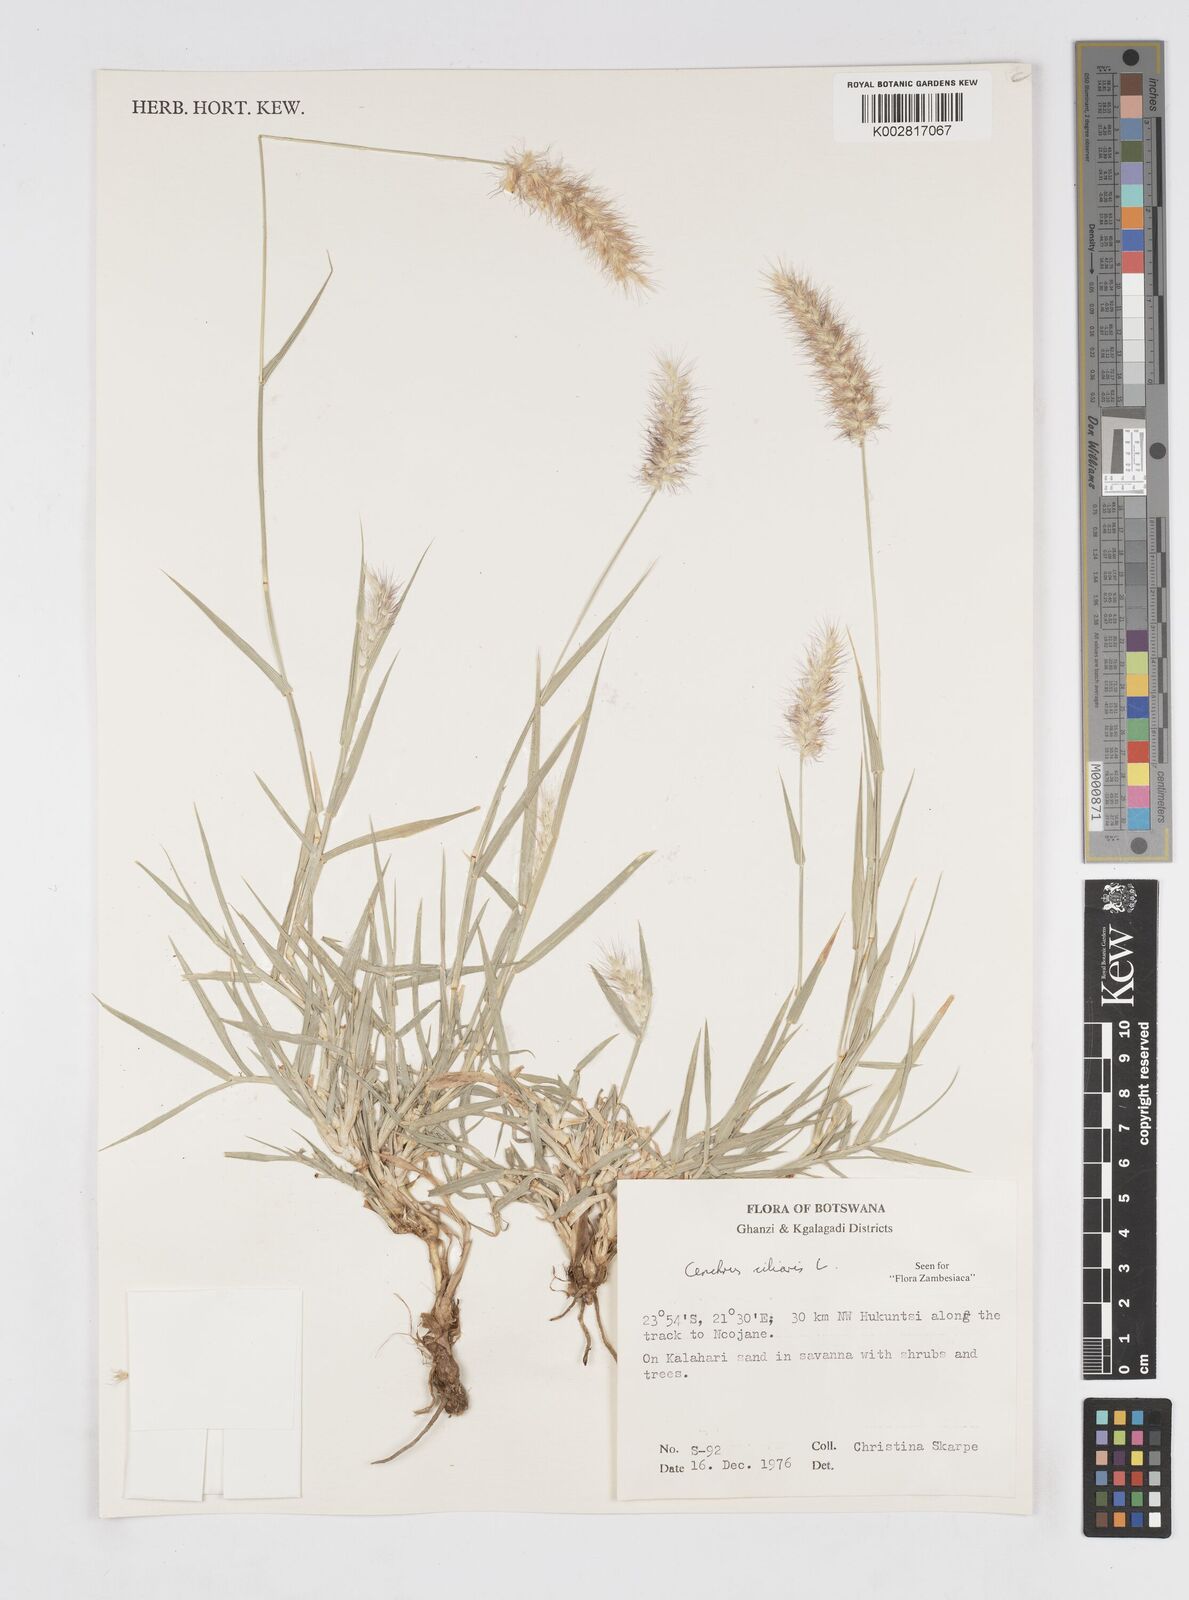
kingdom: Plantae
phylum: Tracheophyta
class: Liliopsida
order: Poales
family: Poaceae
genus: Cenchrus
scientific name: Cenchrus ciliaris
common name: Buffelgrass
